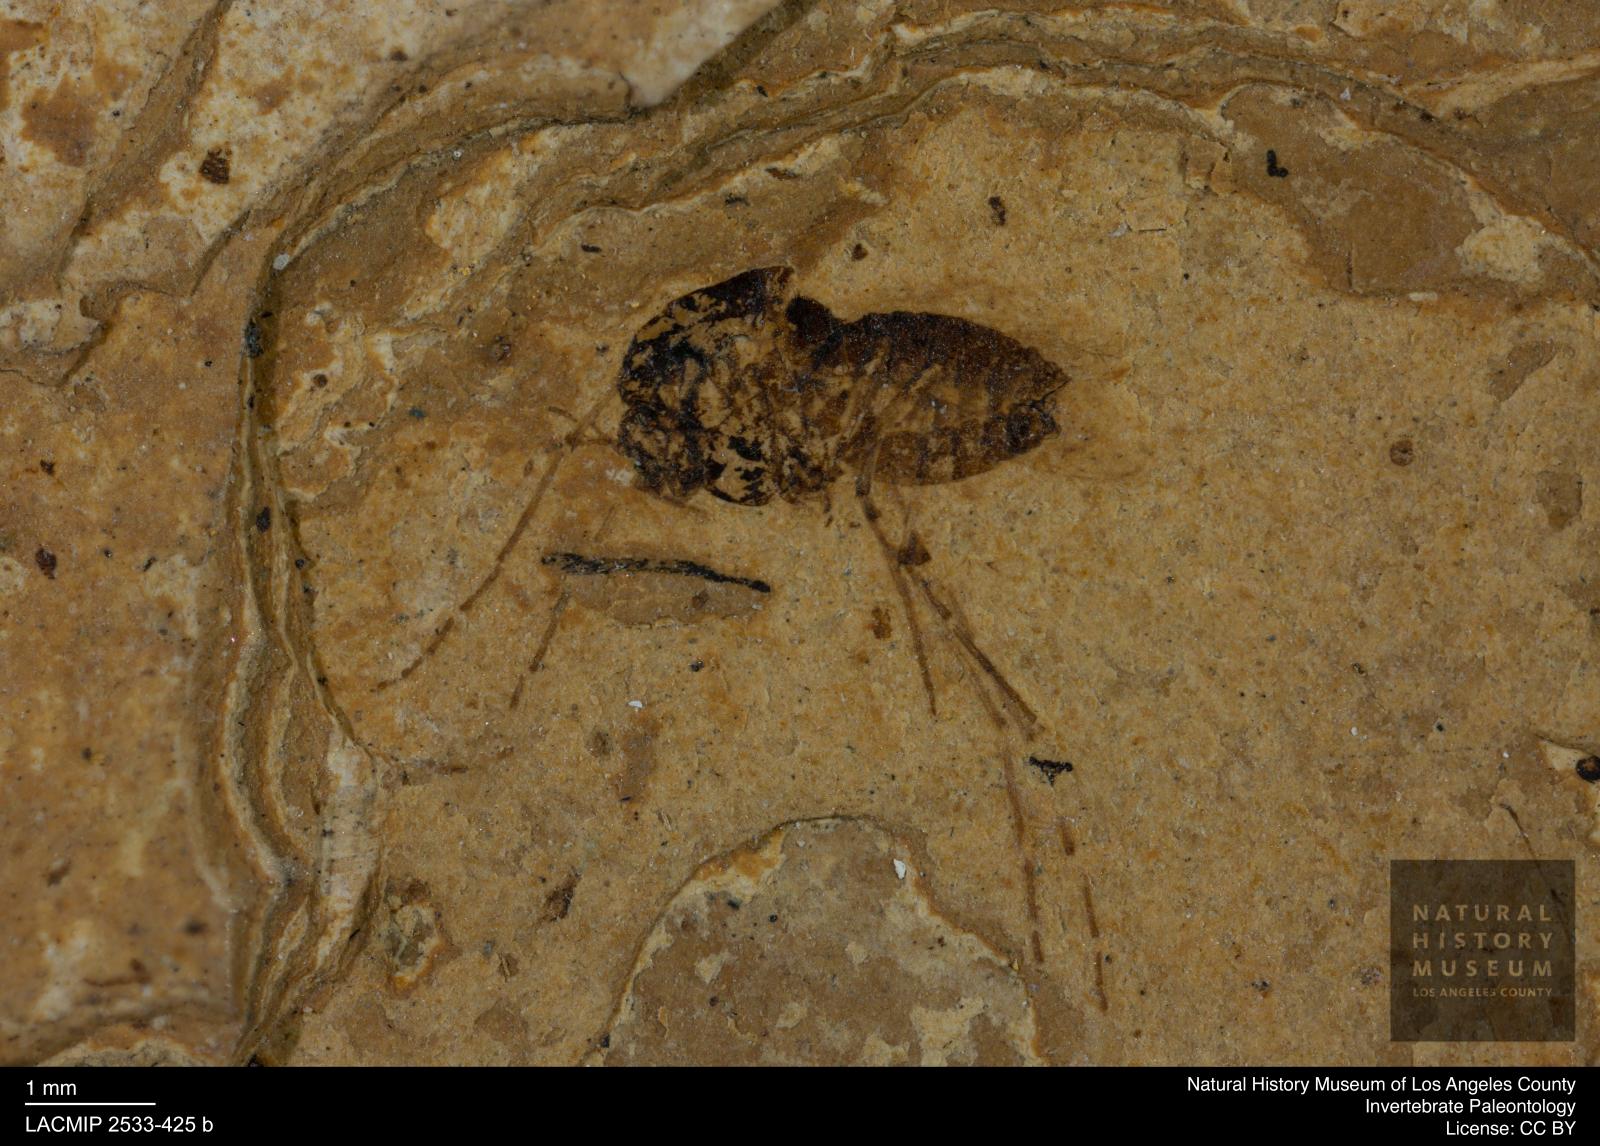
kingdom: Animalia
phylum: Arthropoda
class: Insecta
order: Diptera
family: Chironomidae
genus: Tanypus
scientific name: Tanypus palaemon
